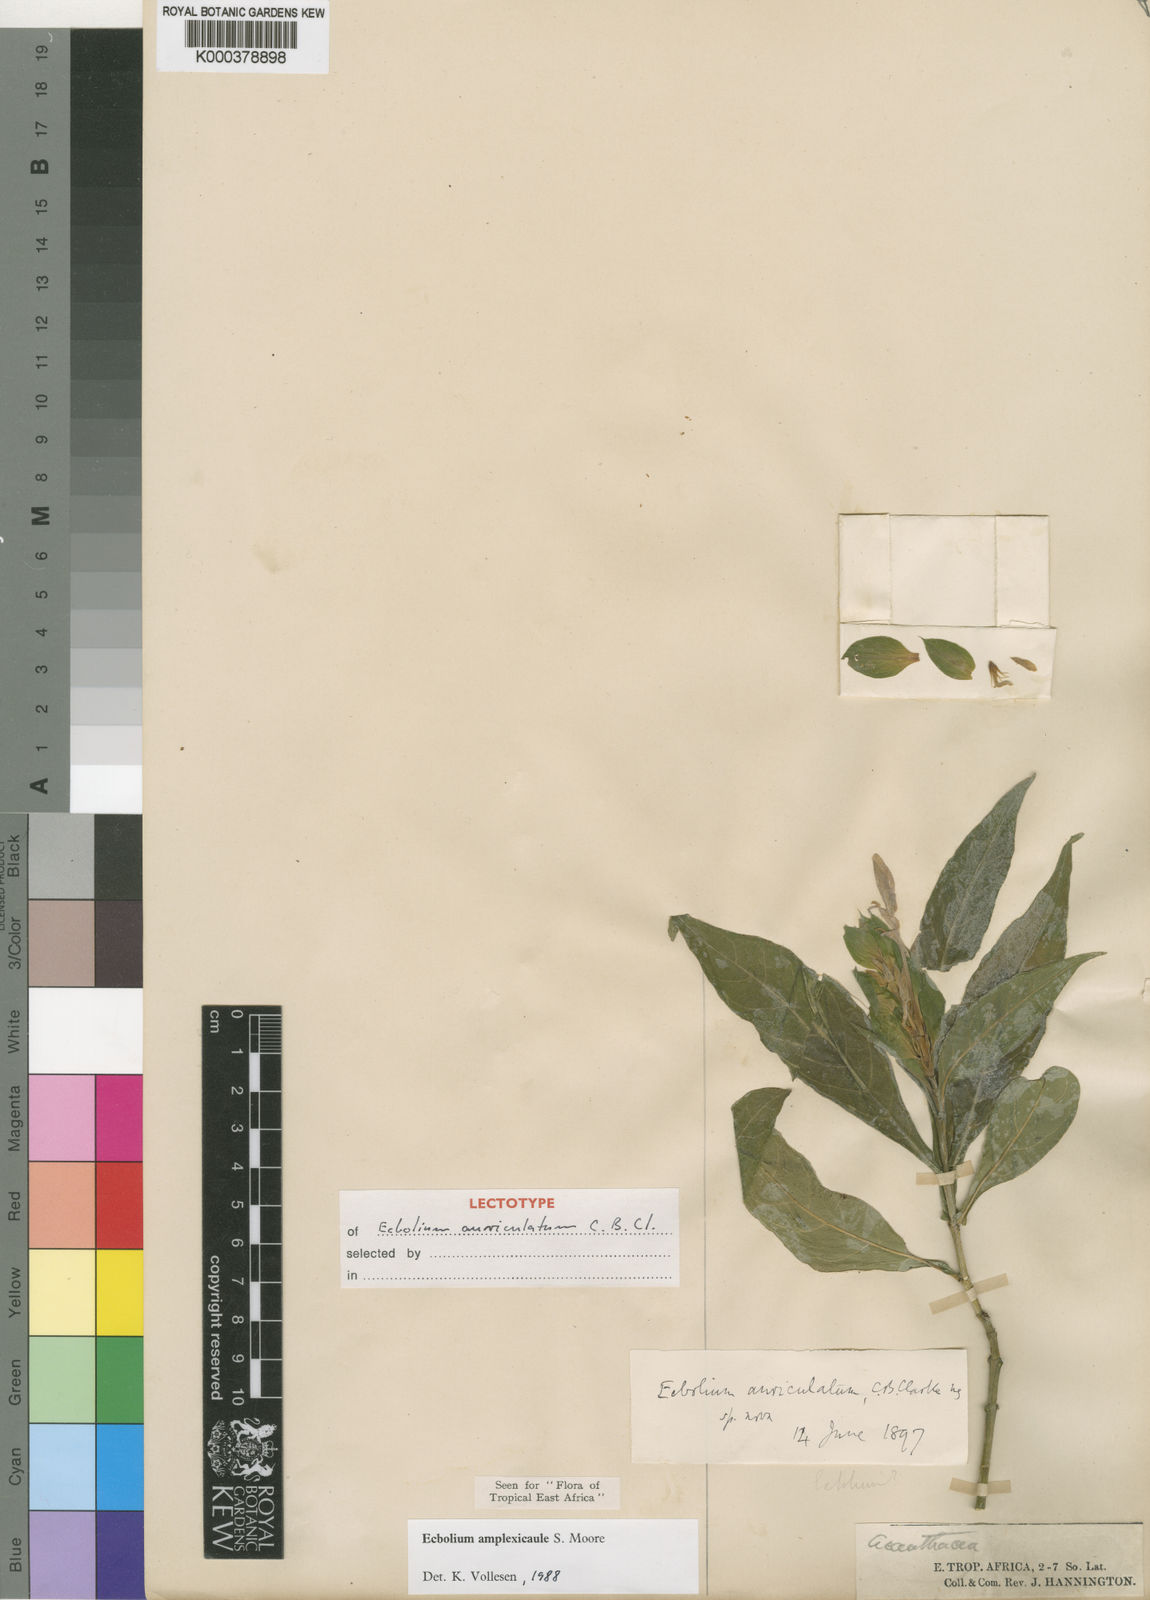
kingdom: Plantae
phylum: Tracheophyta
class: Magnoliopsida
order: Lamiales
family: Acanthaceae
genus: Ecbolium
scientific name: Ecbolium amplexicaule
